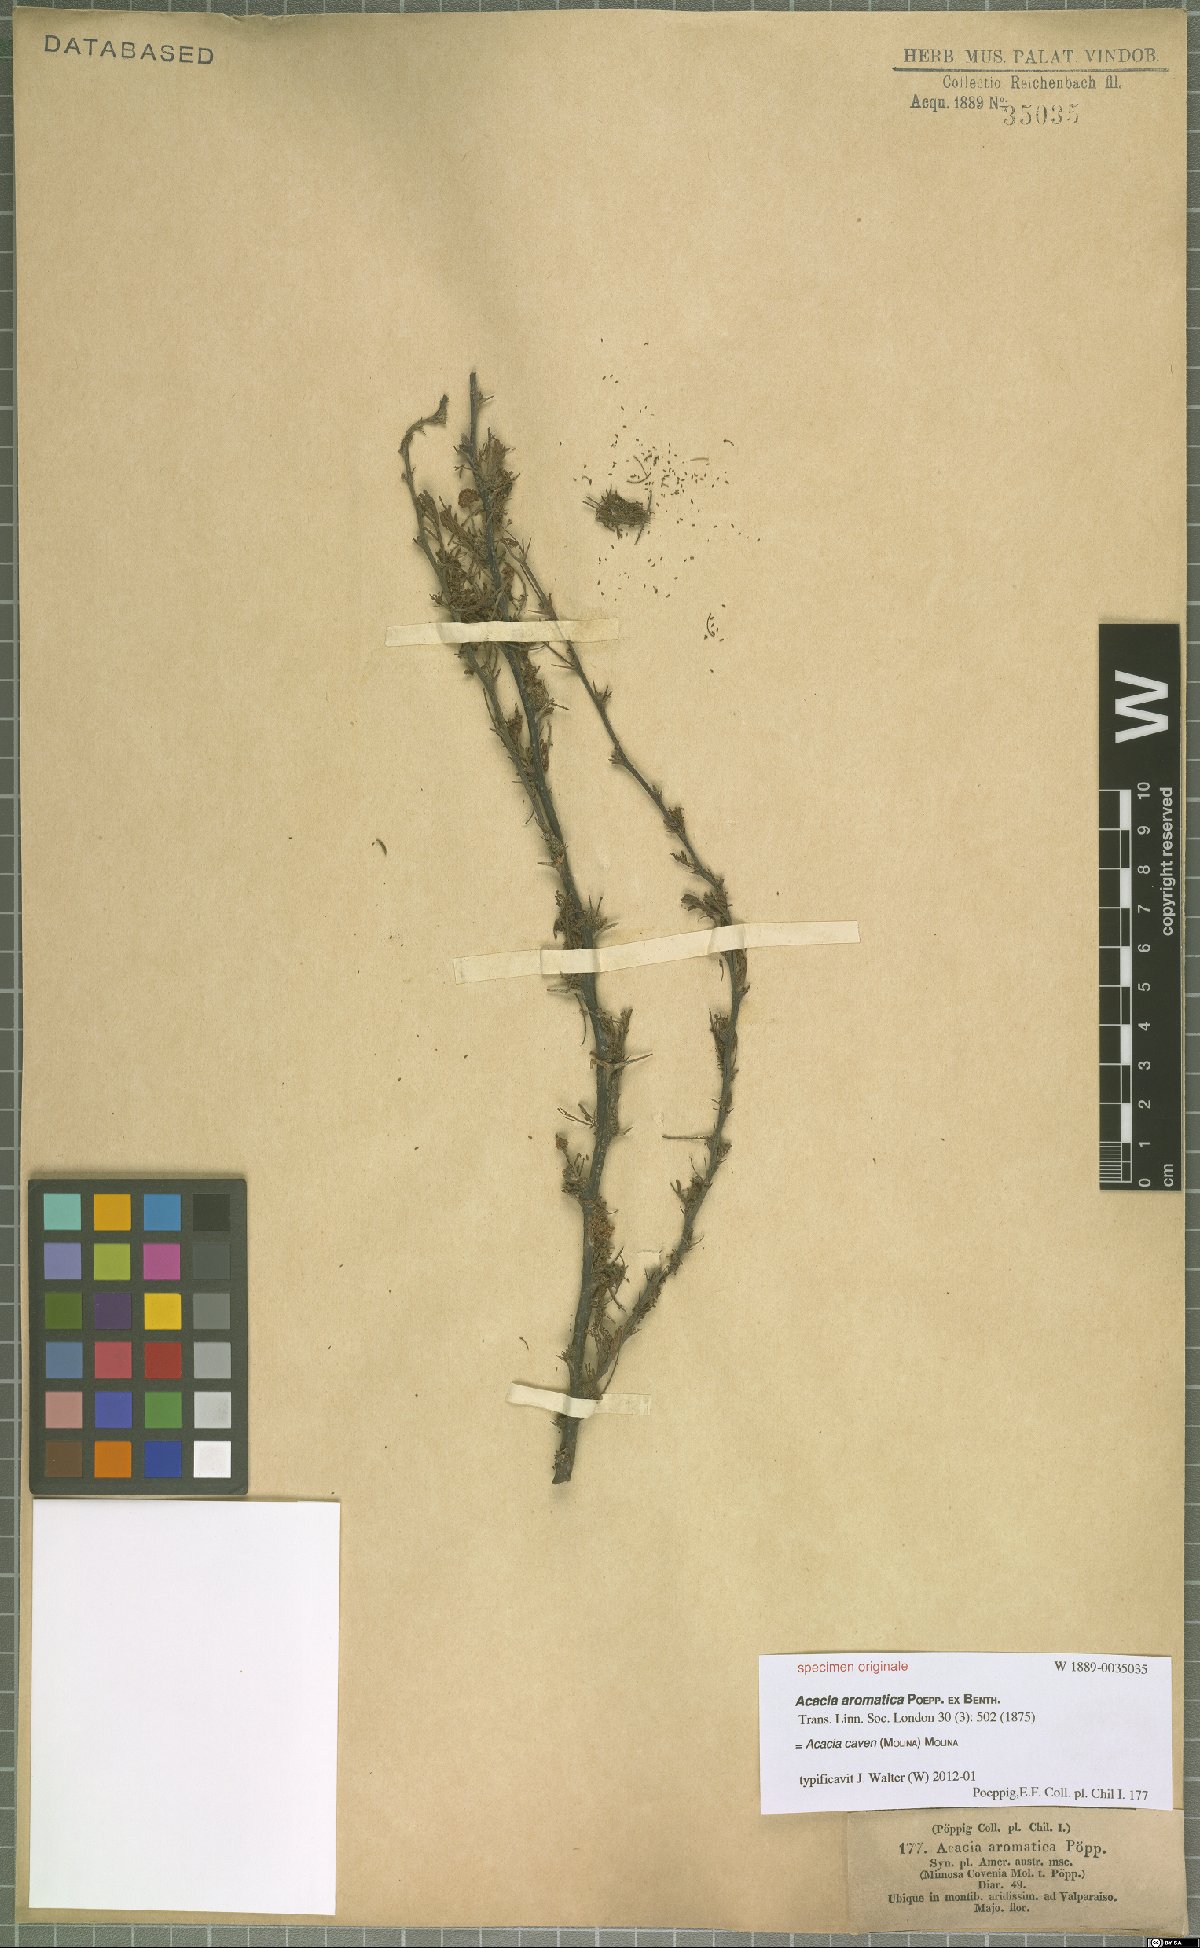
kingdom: Plantae
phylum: Tracheophyta
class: Magnoliopsida
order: Fabales
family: Fabaceae
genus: Vachellia
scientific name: Vachellia caven
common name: Roman cassie
